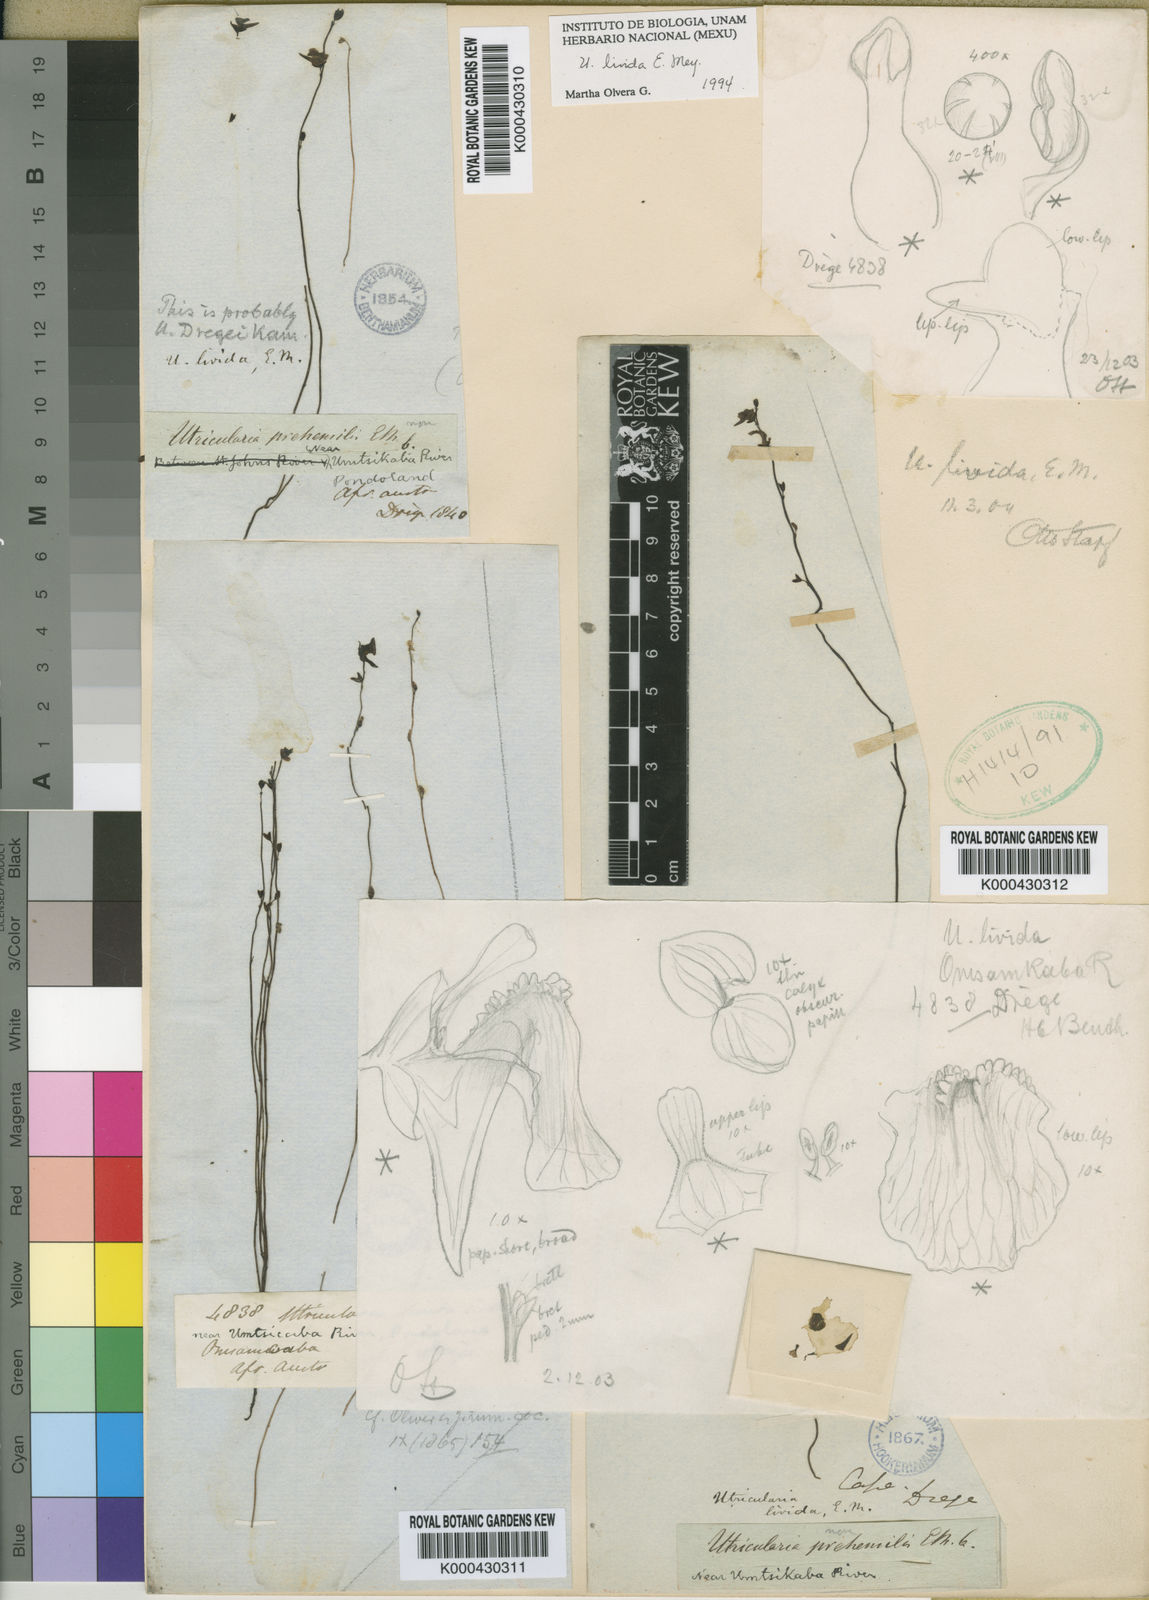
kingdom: Plantae
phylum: Tracheophyta
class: Magnoliopsida
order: Lamiales
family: Lentibulariaceae
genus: Utricularia
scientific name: Utricularia livida
